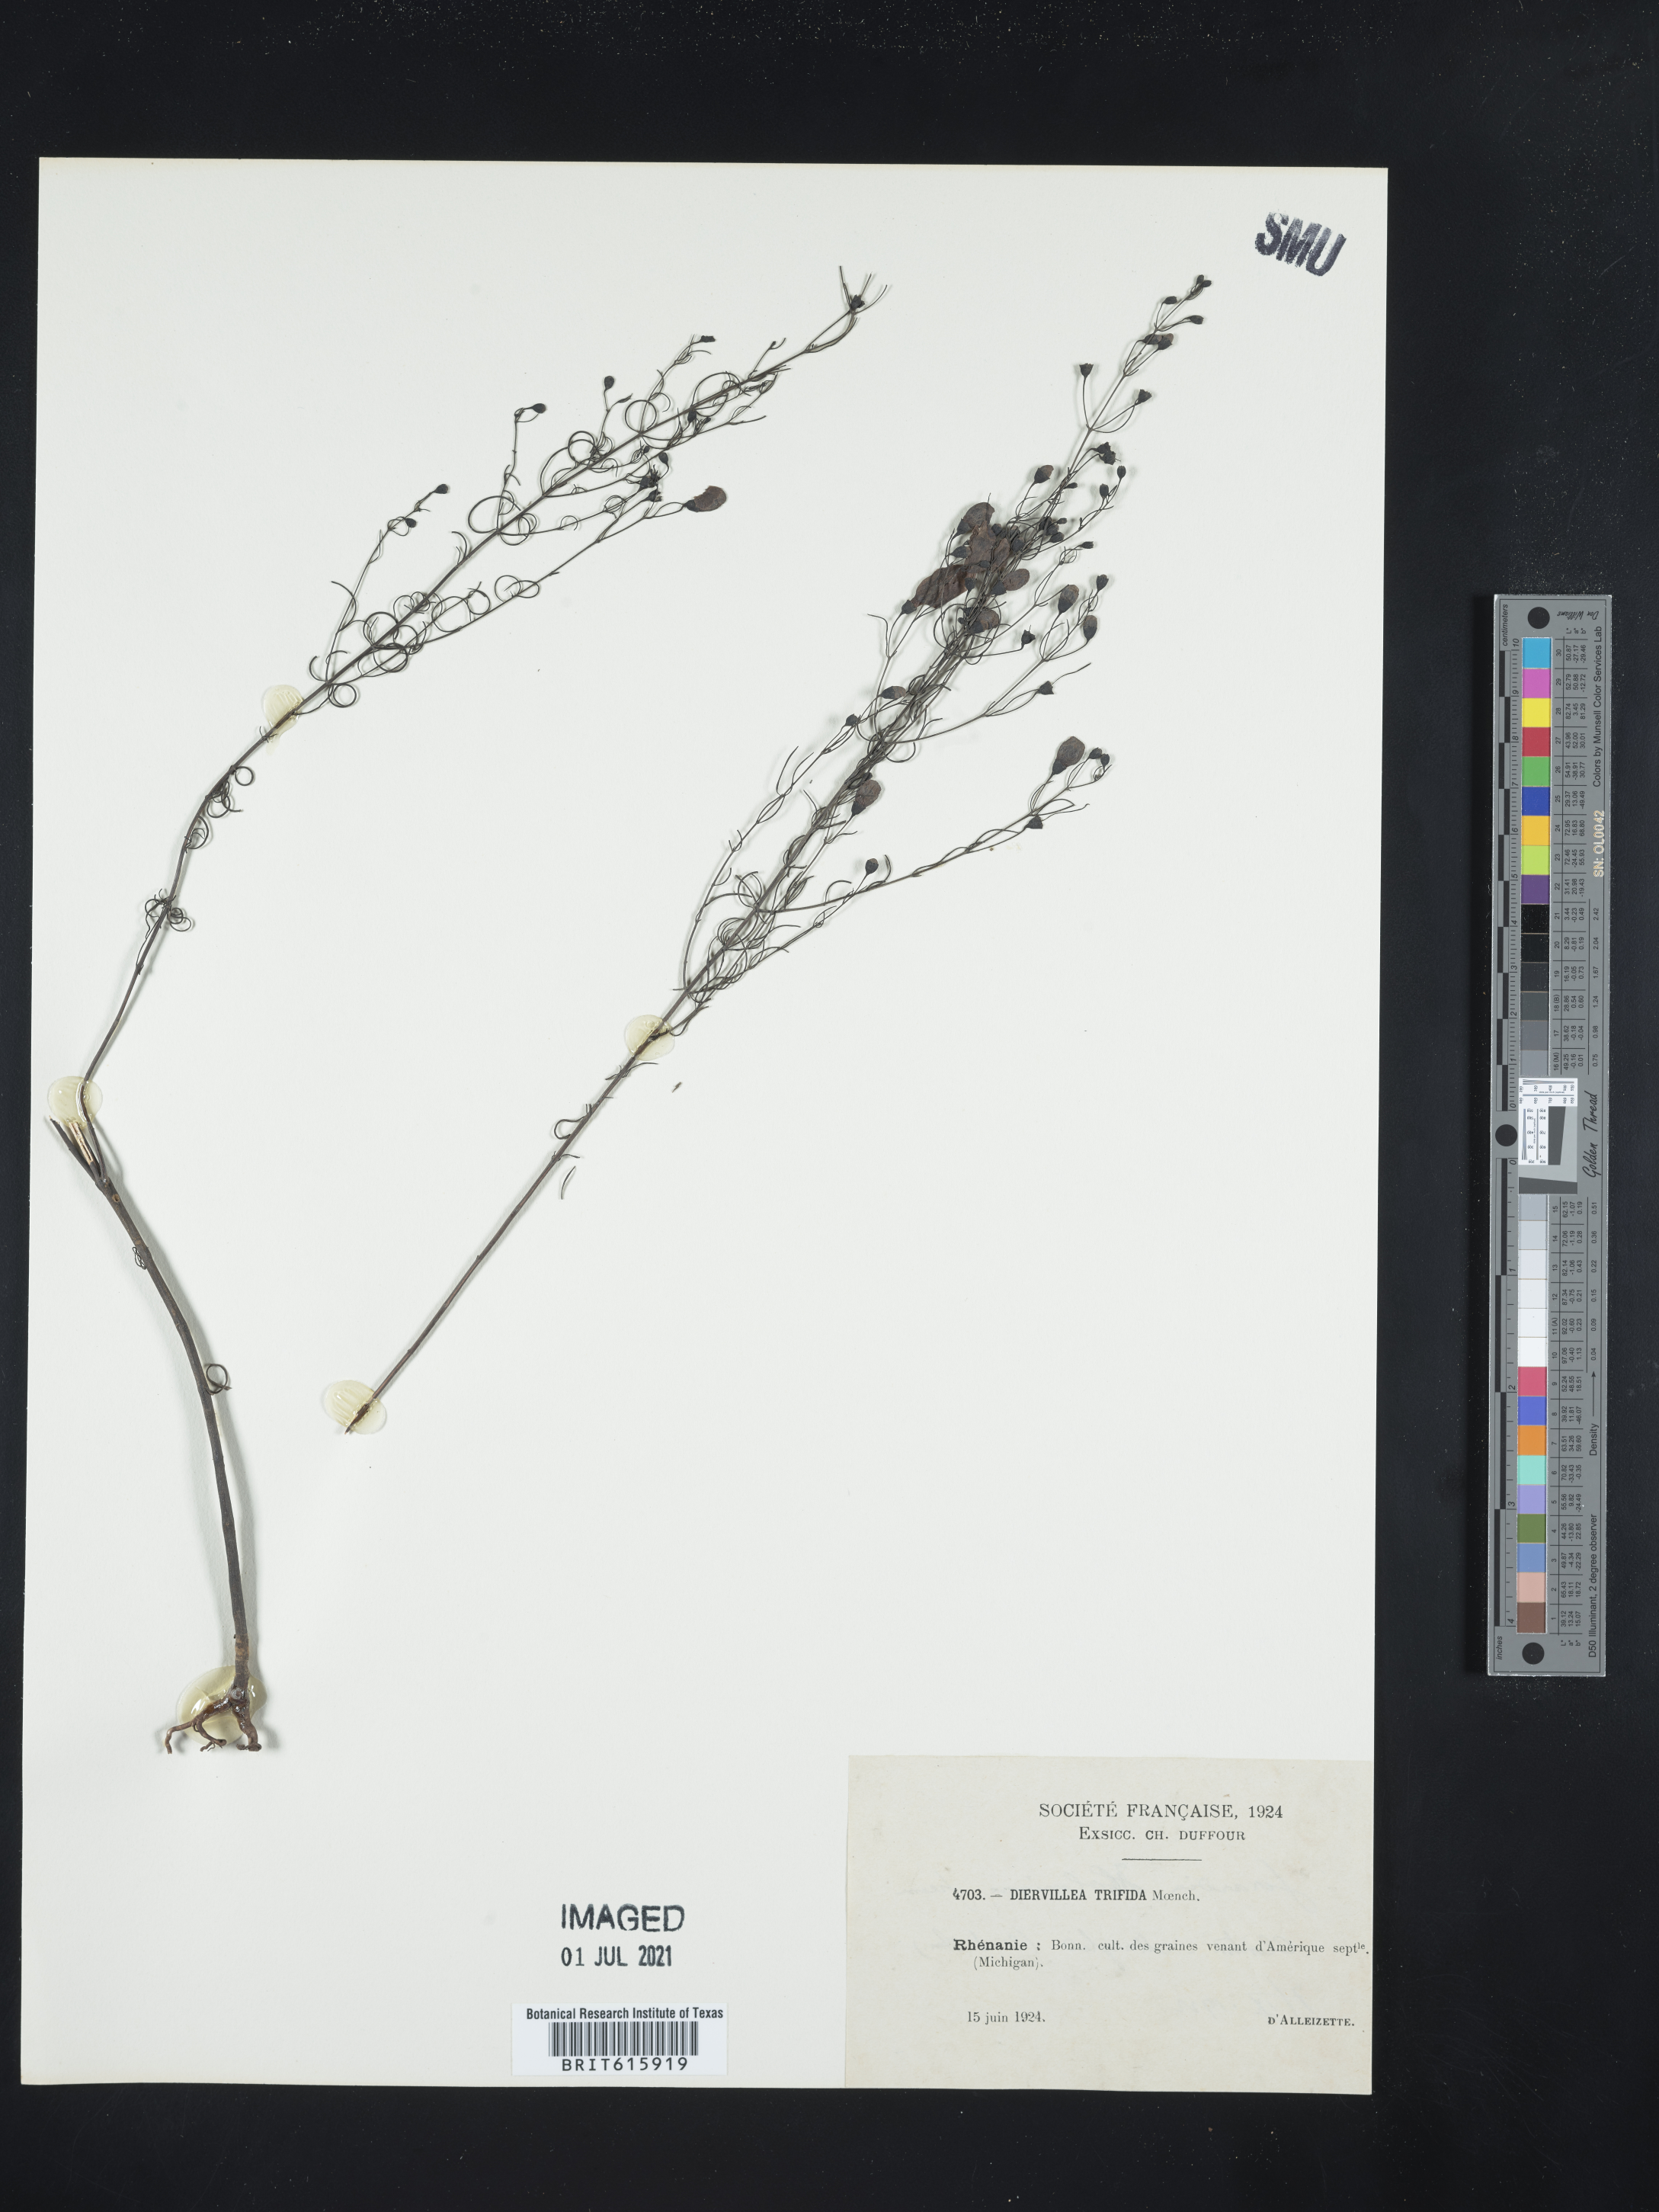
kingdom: Plantae
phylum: Tracheophyta
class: Magnoliopsida
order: Dipsacales
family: Caprifoliaceae
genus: Diervilla
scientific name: Diervilla lonicera
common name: Bush-honeysuckle
